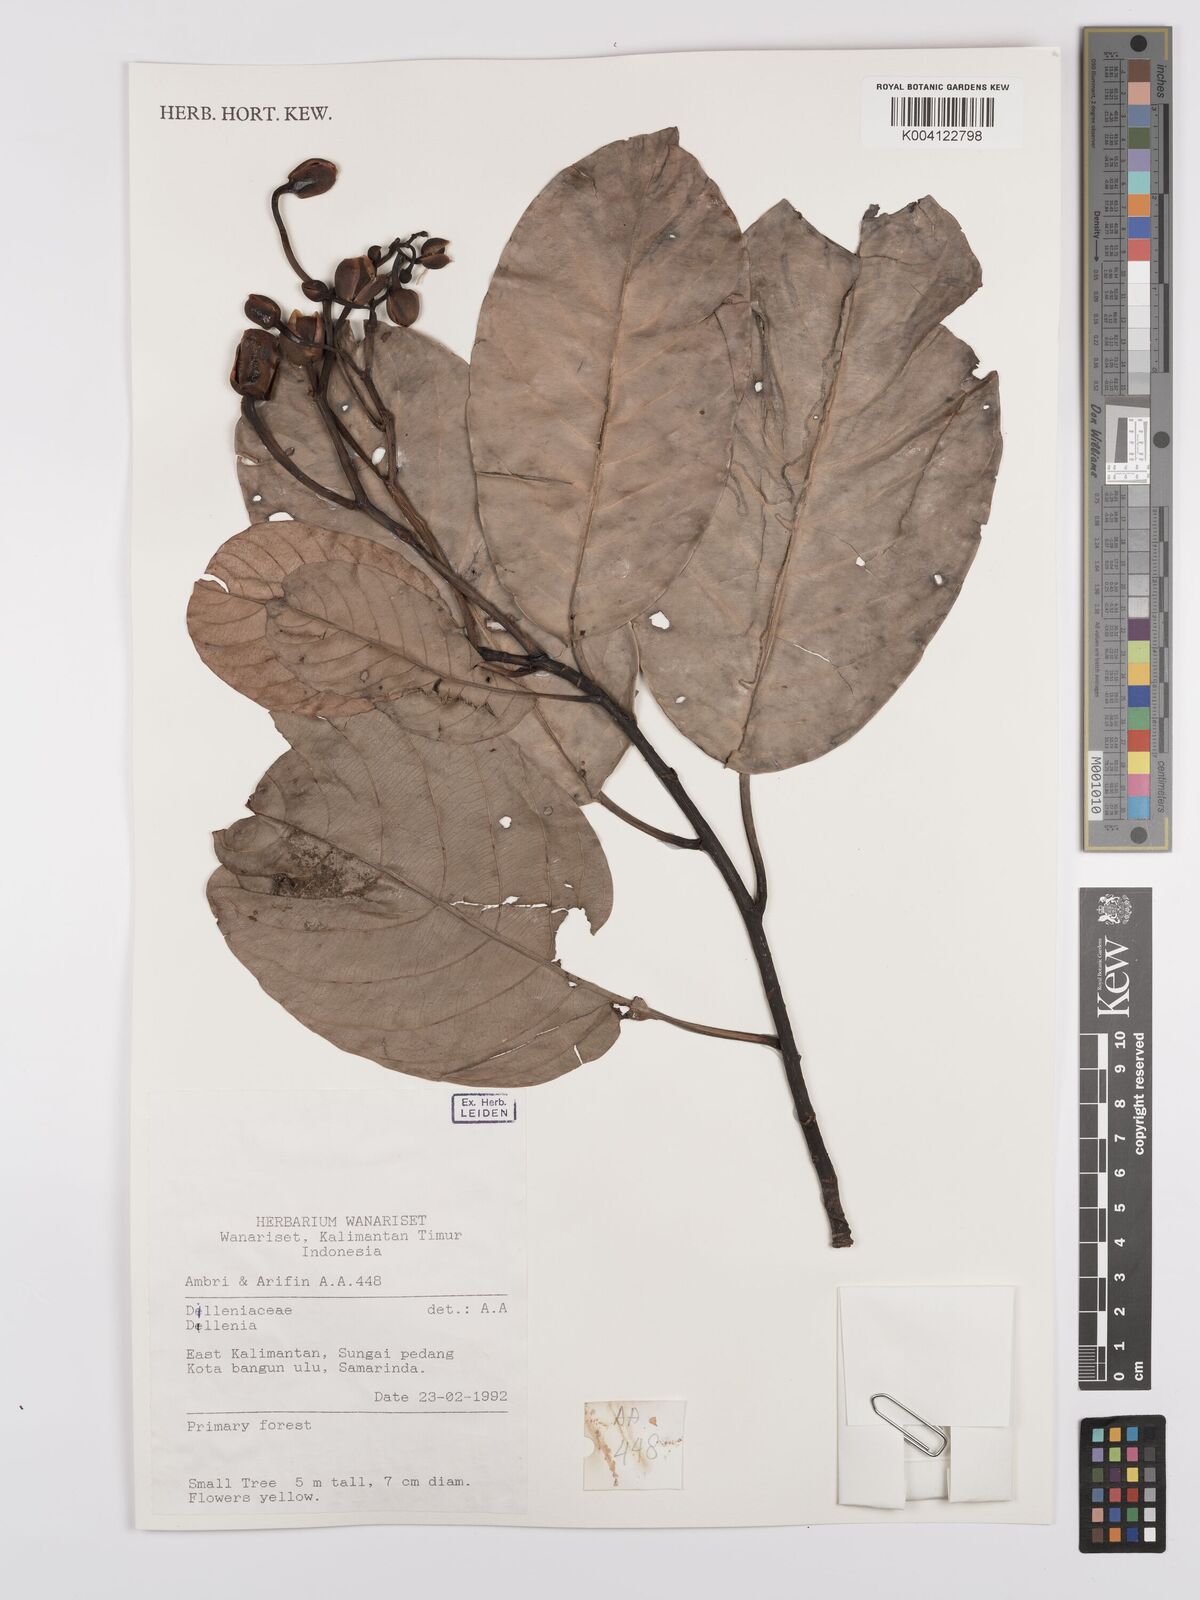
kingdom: Plantae
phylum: Tracheophyta
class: Magnoliopsida
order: Dilleniales
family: Dilleniaceae
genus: Dillenia
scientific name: Dillenia
